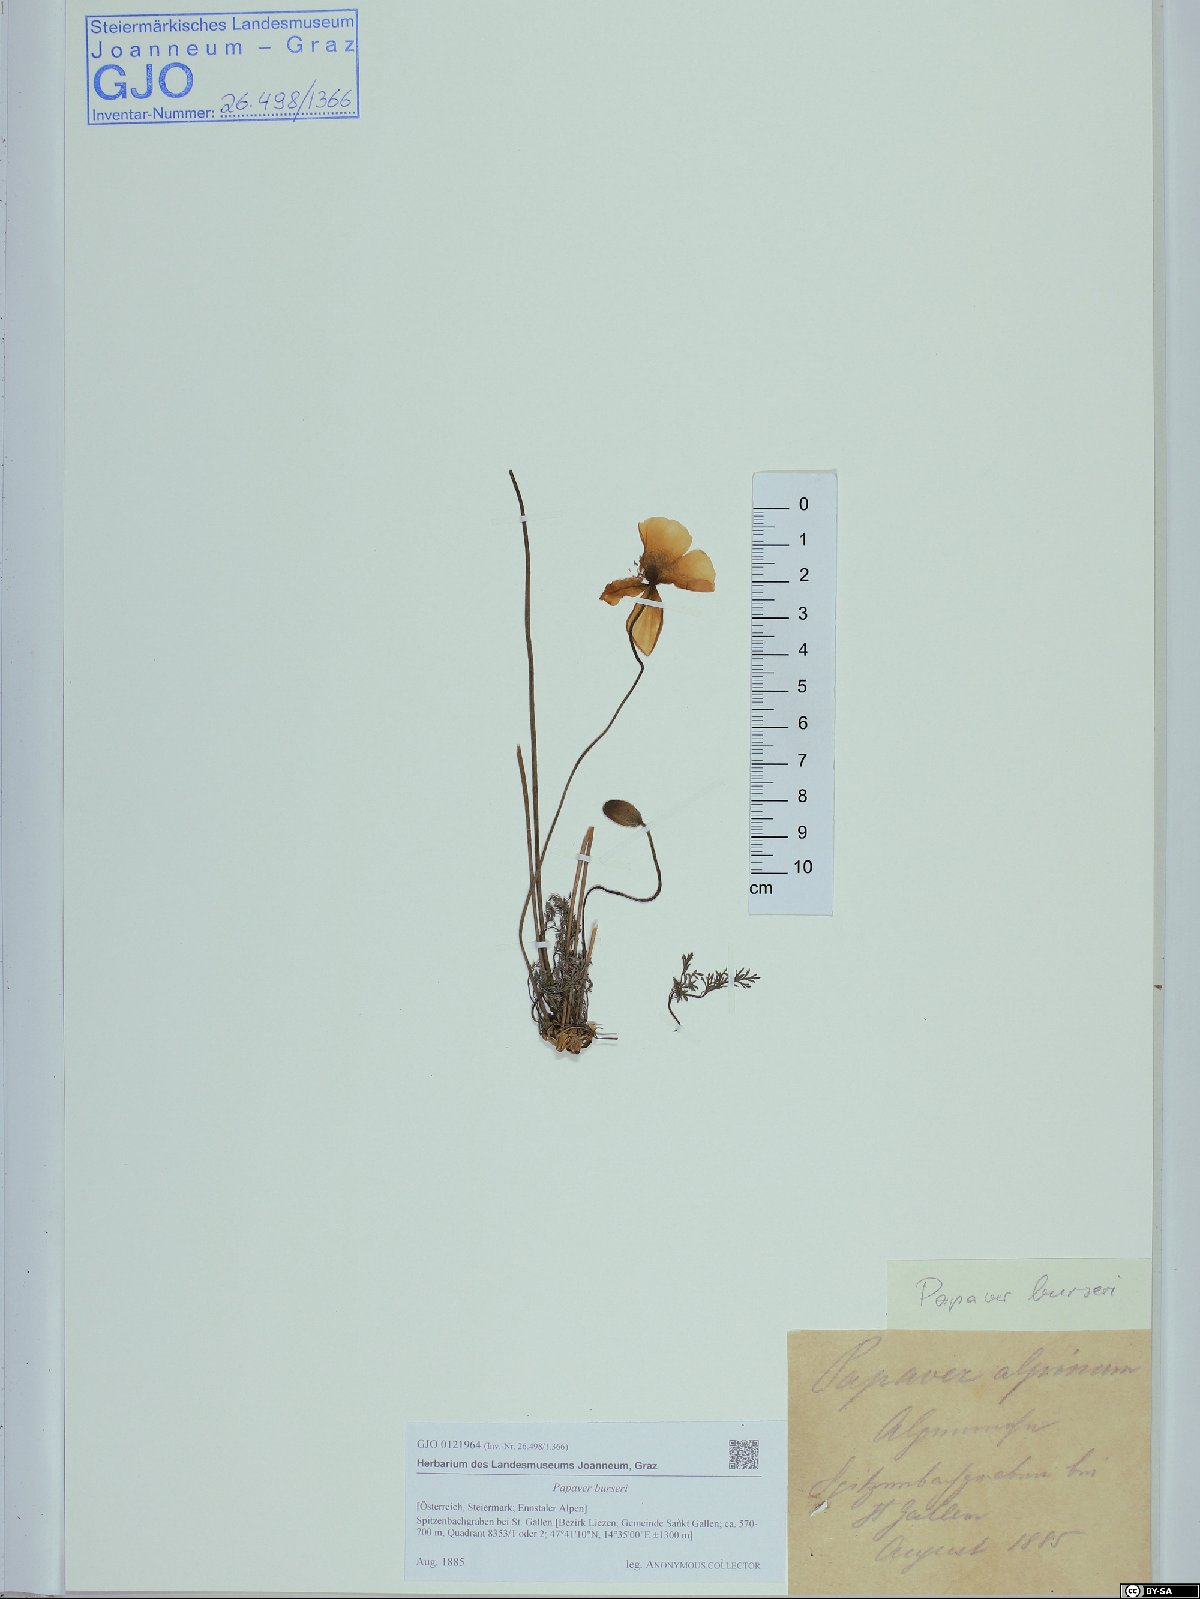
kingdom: Plantae
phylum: Tracheophyta
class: Magnoliopsida
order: Ranunculales
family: Papaveraceae
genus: Papaver
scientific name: Papaver alpinum
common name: Austrian poppy
